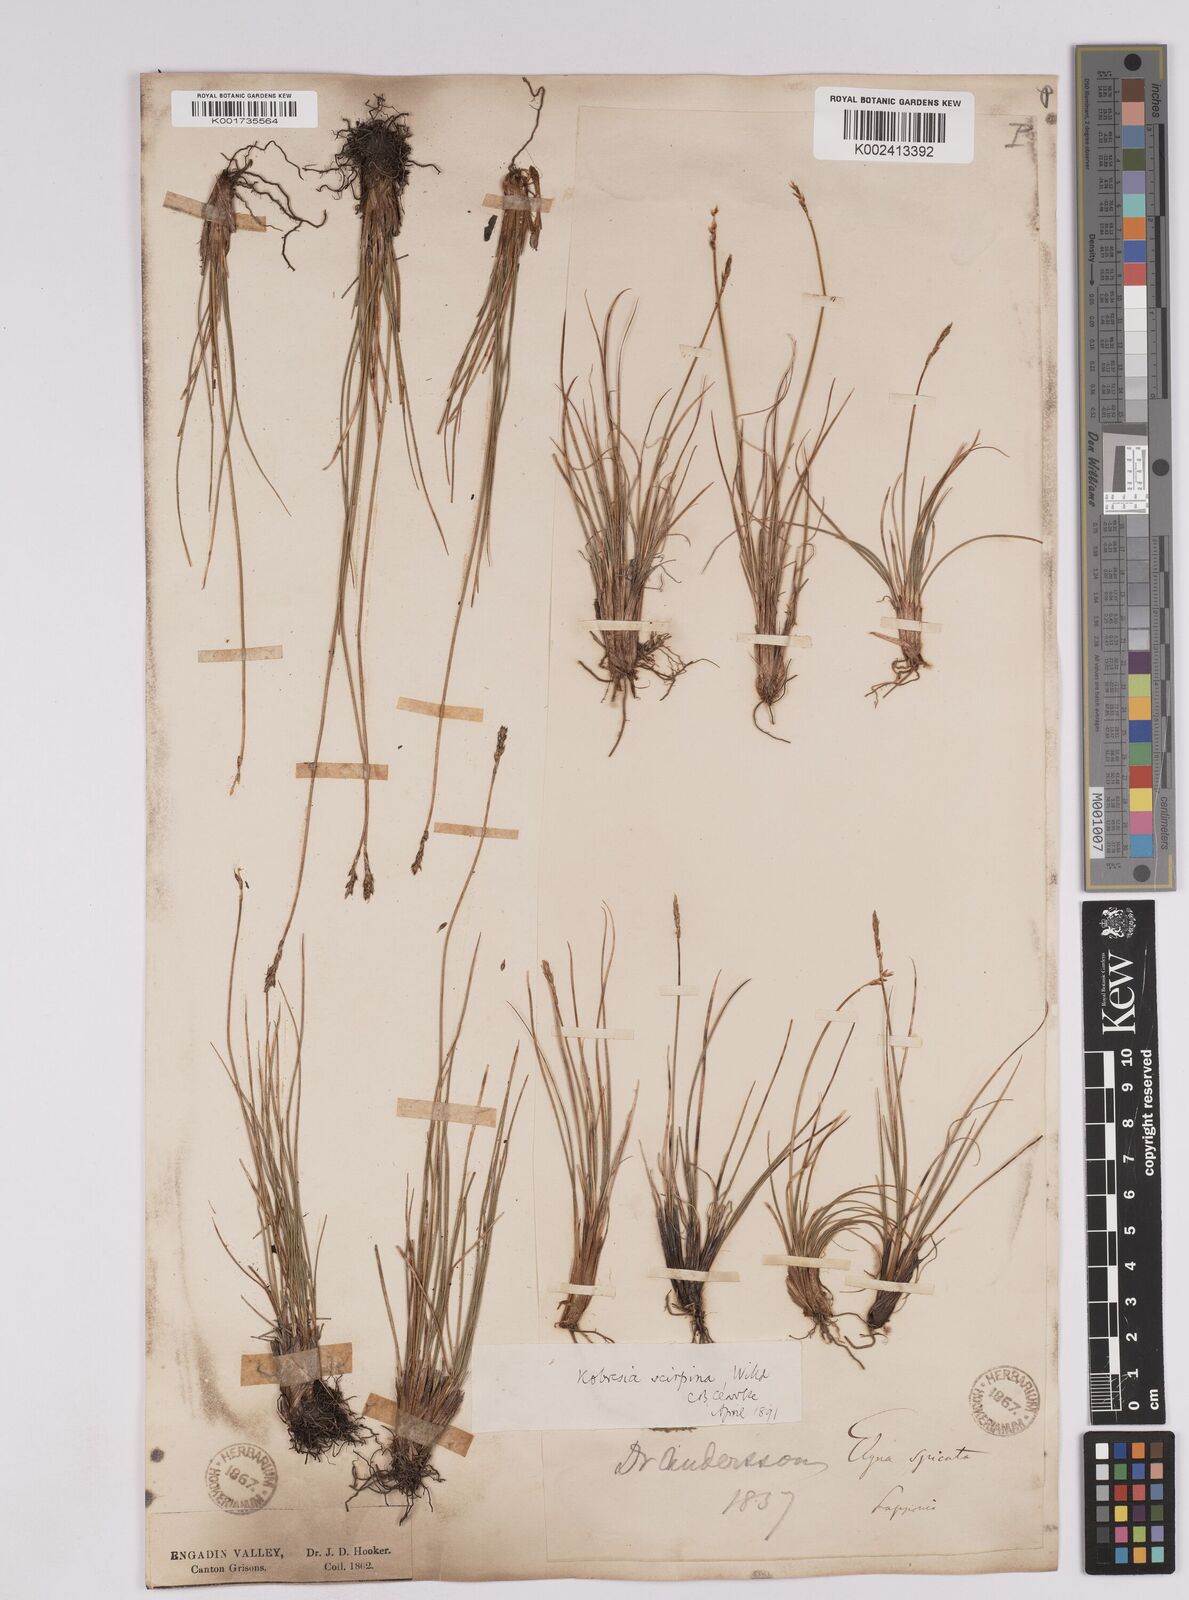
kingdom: Plantae
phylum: Tracheophyta
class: Liliopsida
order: Poales
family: Cyperaceae
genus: Carex
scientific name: Carex myosuroides
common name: Bellard's bog sedge
